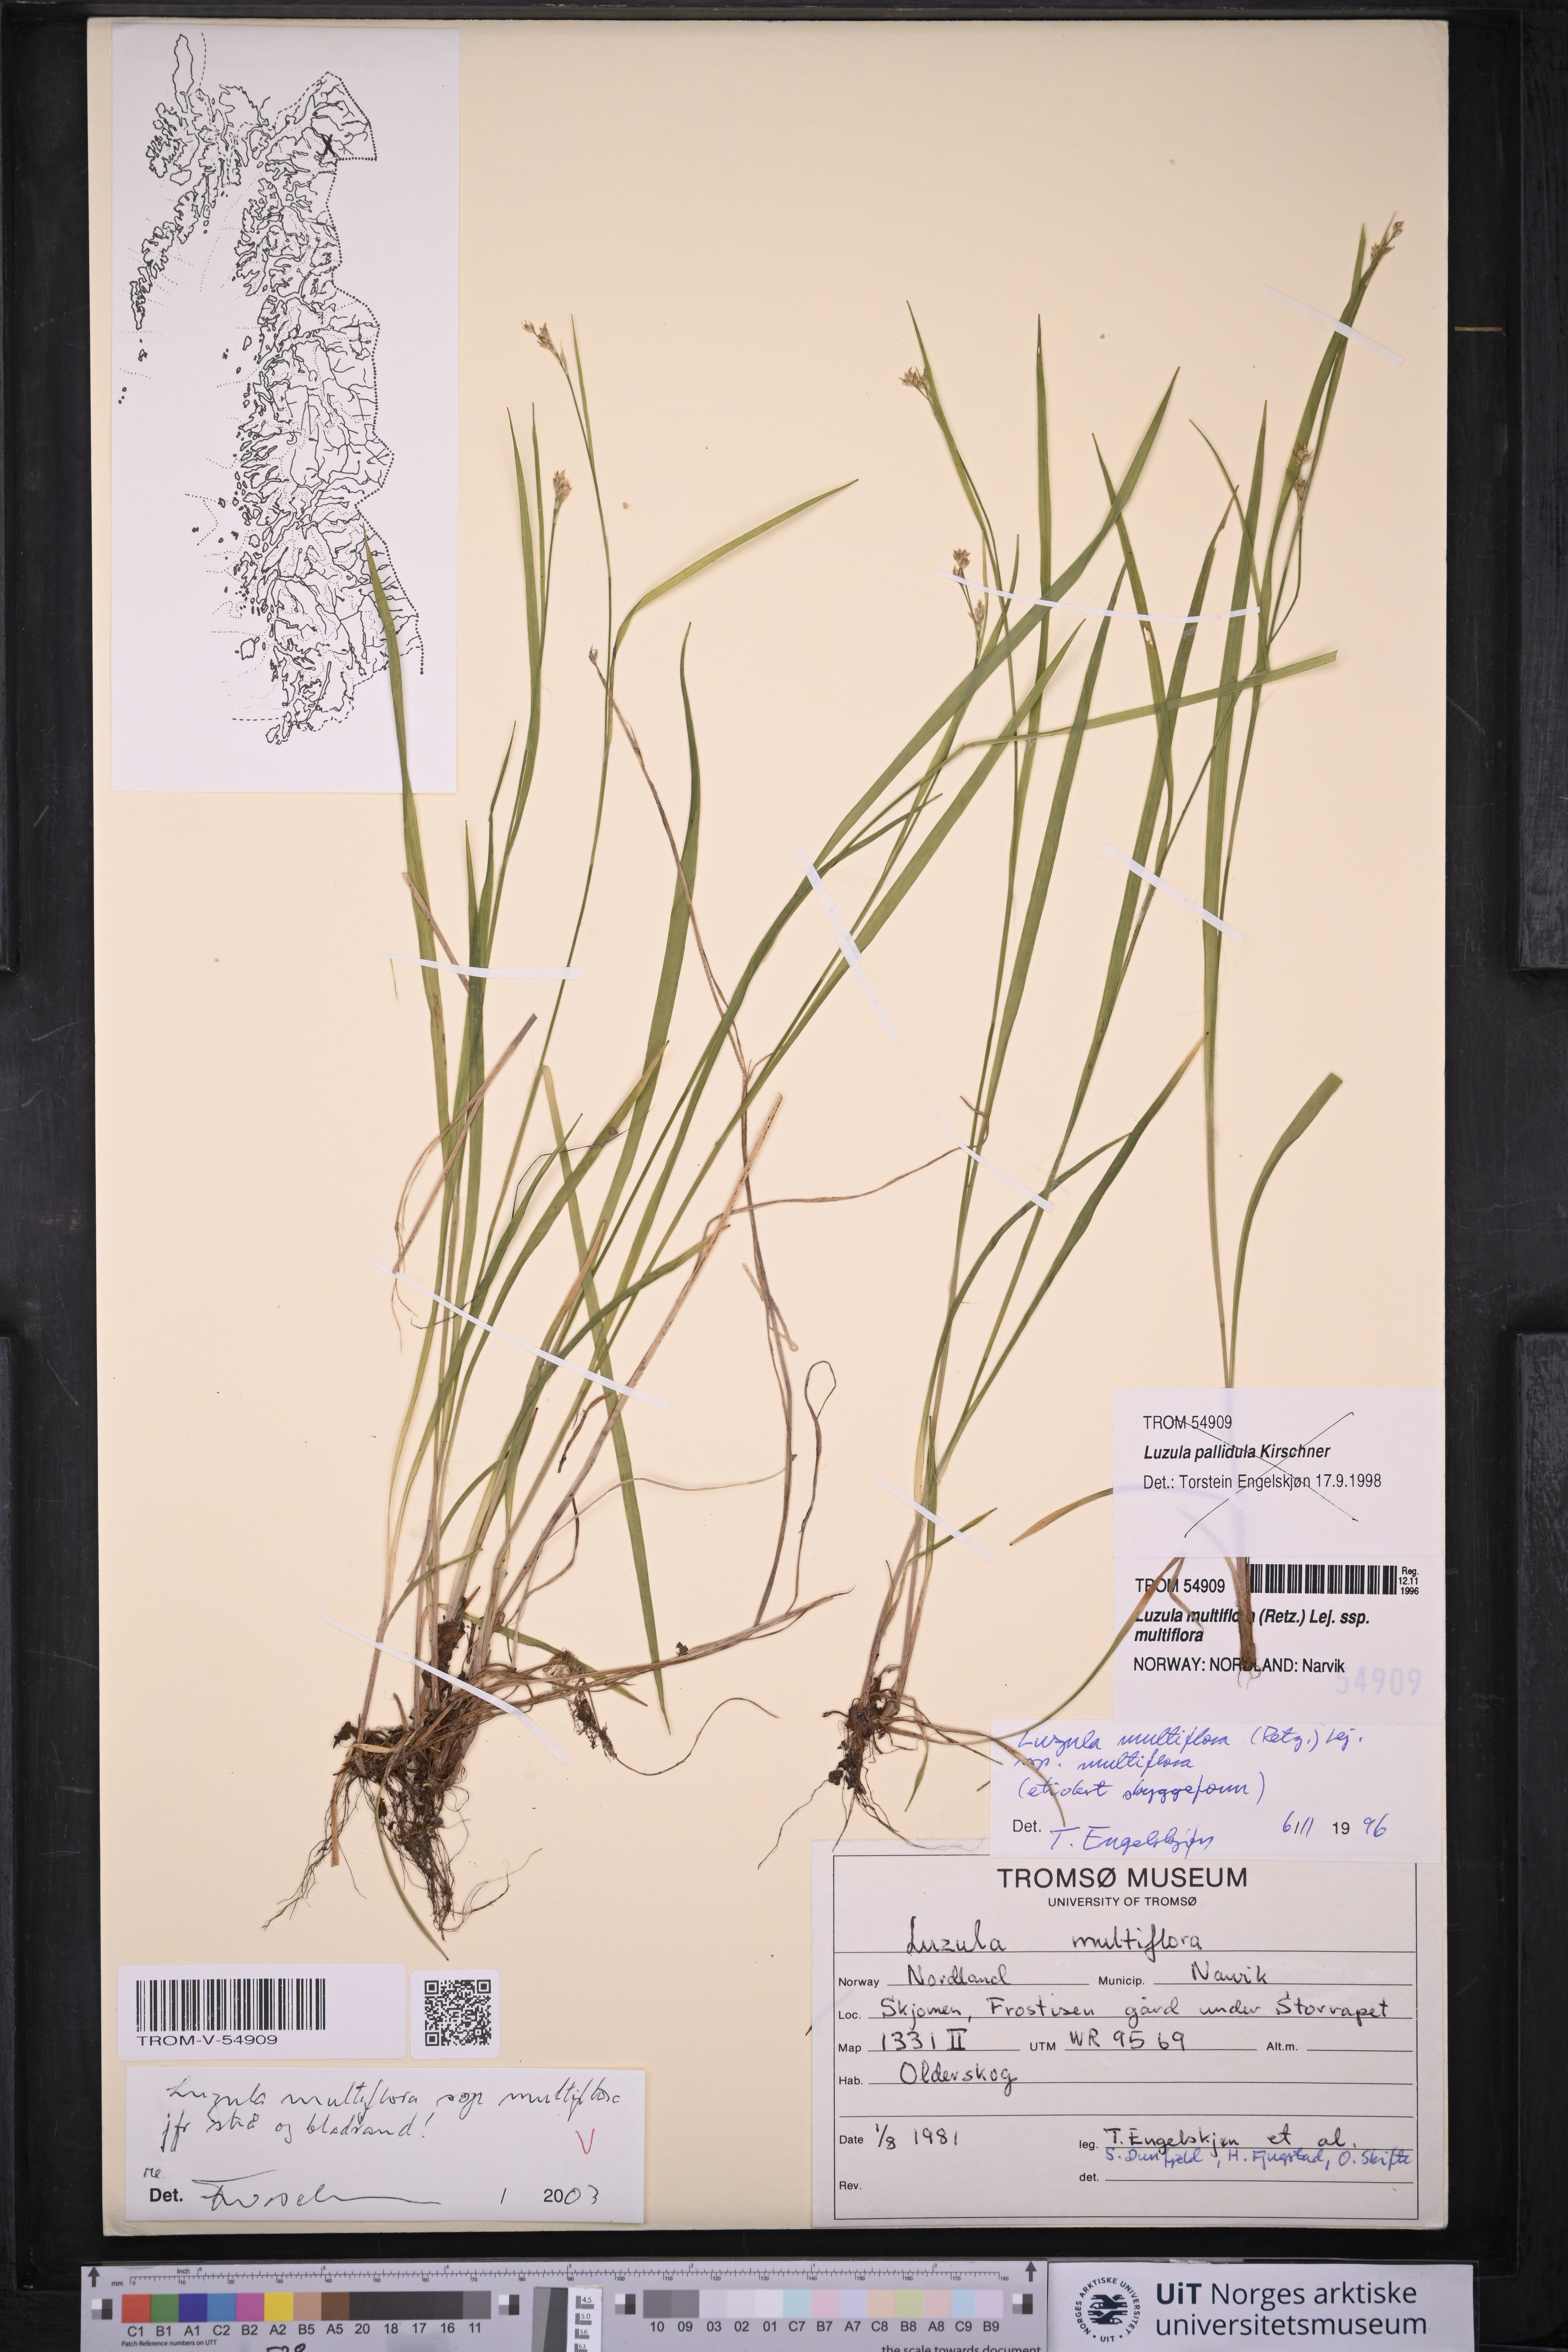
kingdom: Plantae
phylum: Tracheophyta
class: Liliopsida
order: Poales
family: Juncaceae
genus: Luzula
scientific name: Luzula multiflora
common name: Heath wood-rush
